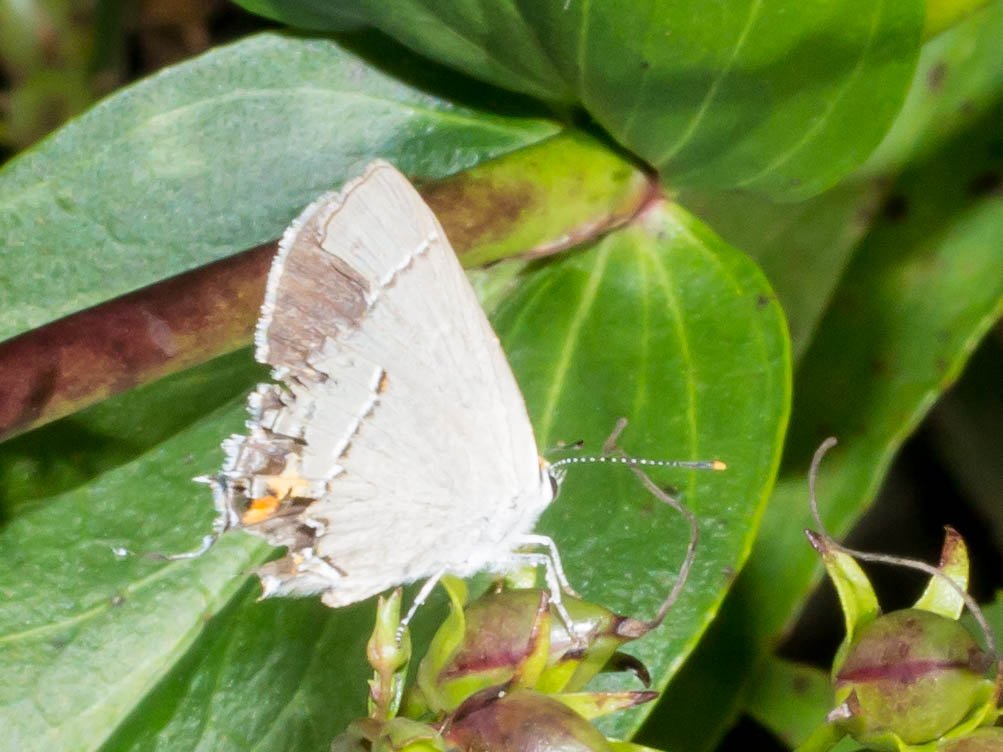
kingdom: Animalia
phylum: Arthropoda
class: Insecta
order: Lepidoptera
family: Lycaenidae
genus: Strymon
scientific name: Strymon melinus
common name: Gray Hairstreak
